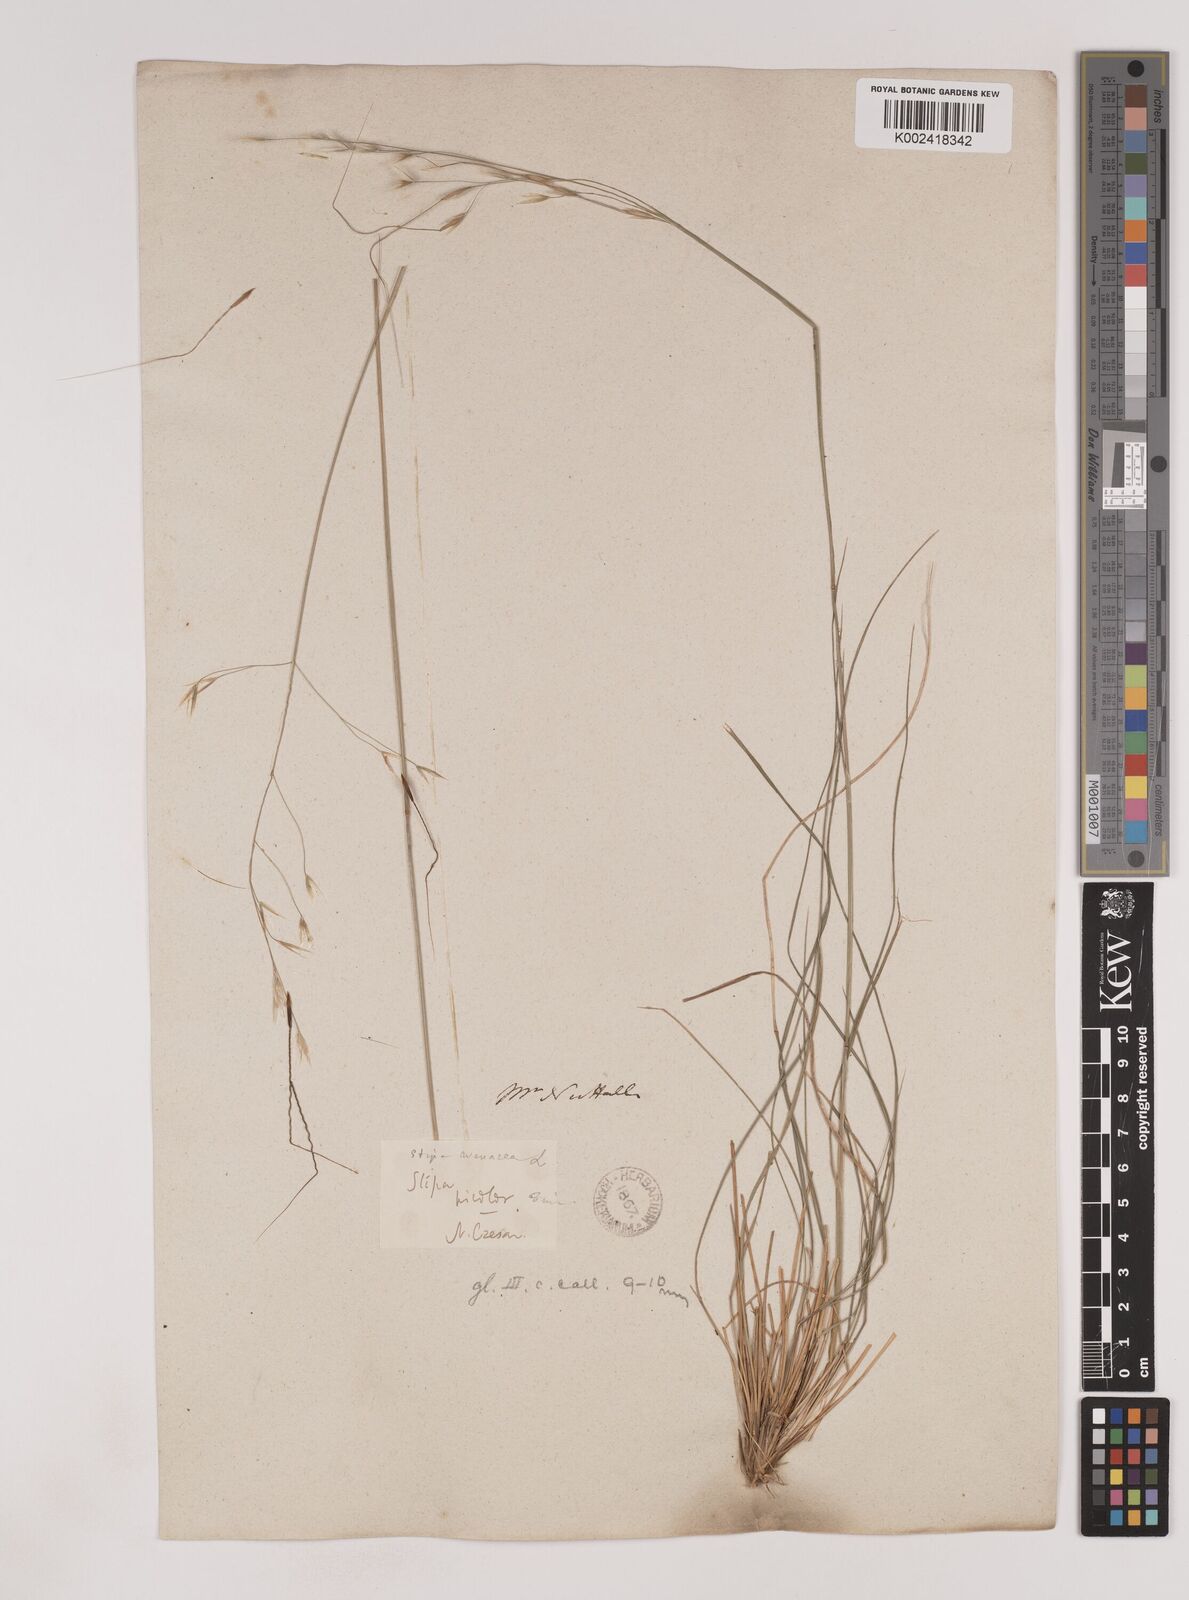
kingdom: Plantae
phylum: Tracheophyta
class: Liliopsida
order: Poales
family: Poaceae
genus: Piptochaetium
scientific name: Piptochaetium avenaceum
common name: Black bunchgrass
